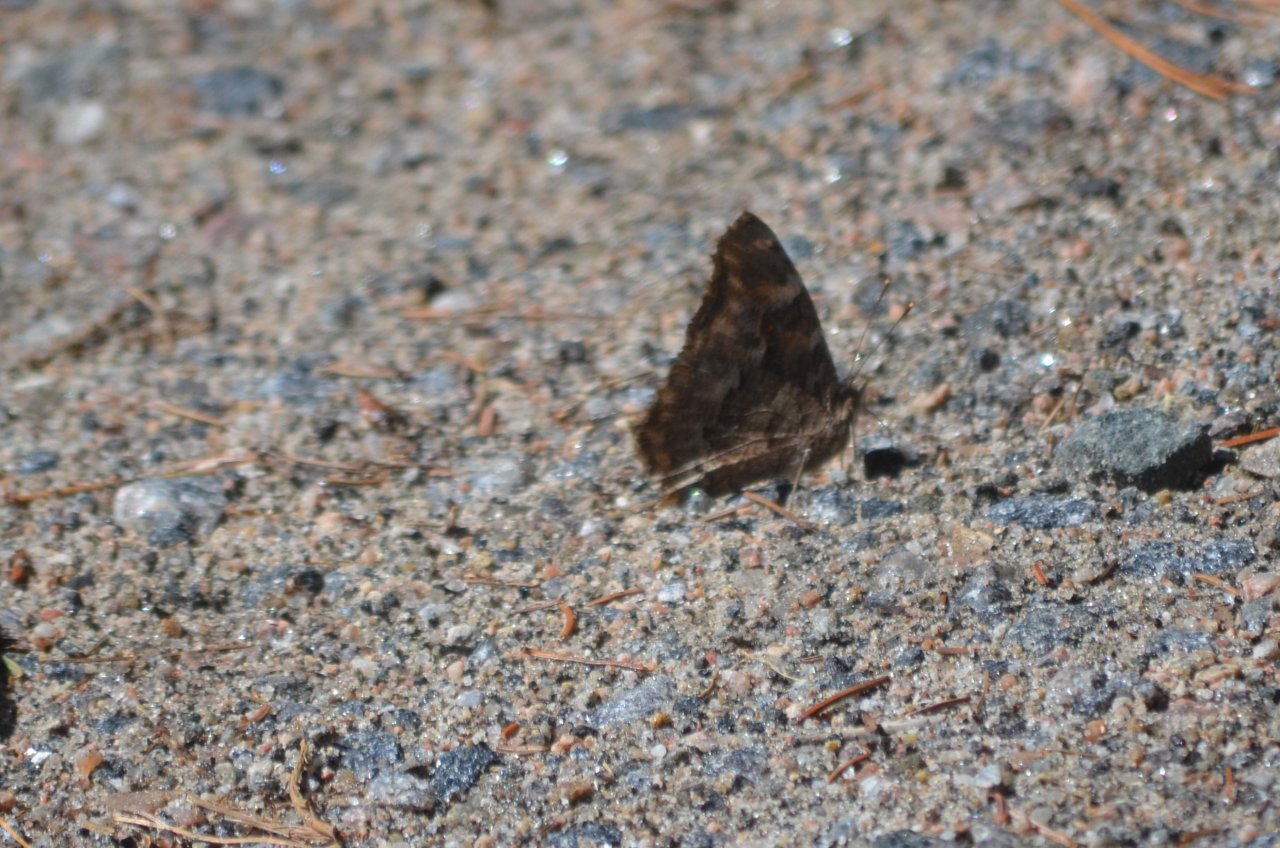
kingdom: Animalia
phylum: Arthropoda
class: Insecta
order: Lepidoptera
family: Nymphalidae
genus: Polygonia
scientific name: Polygonia vaualbum
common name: Compton Tortoiseshell
